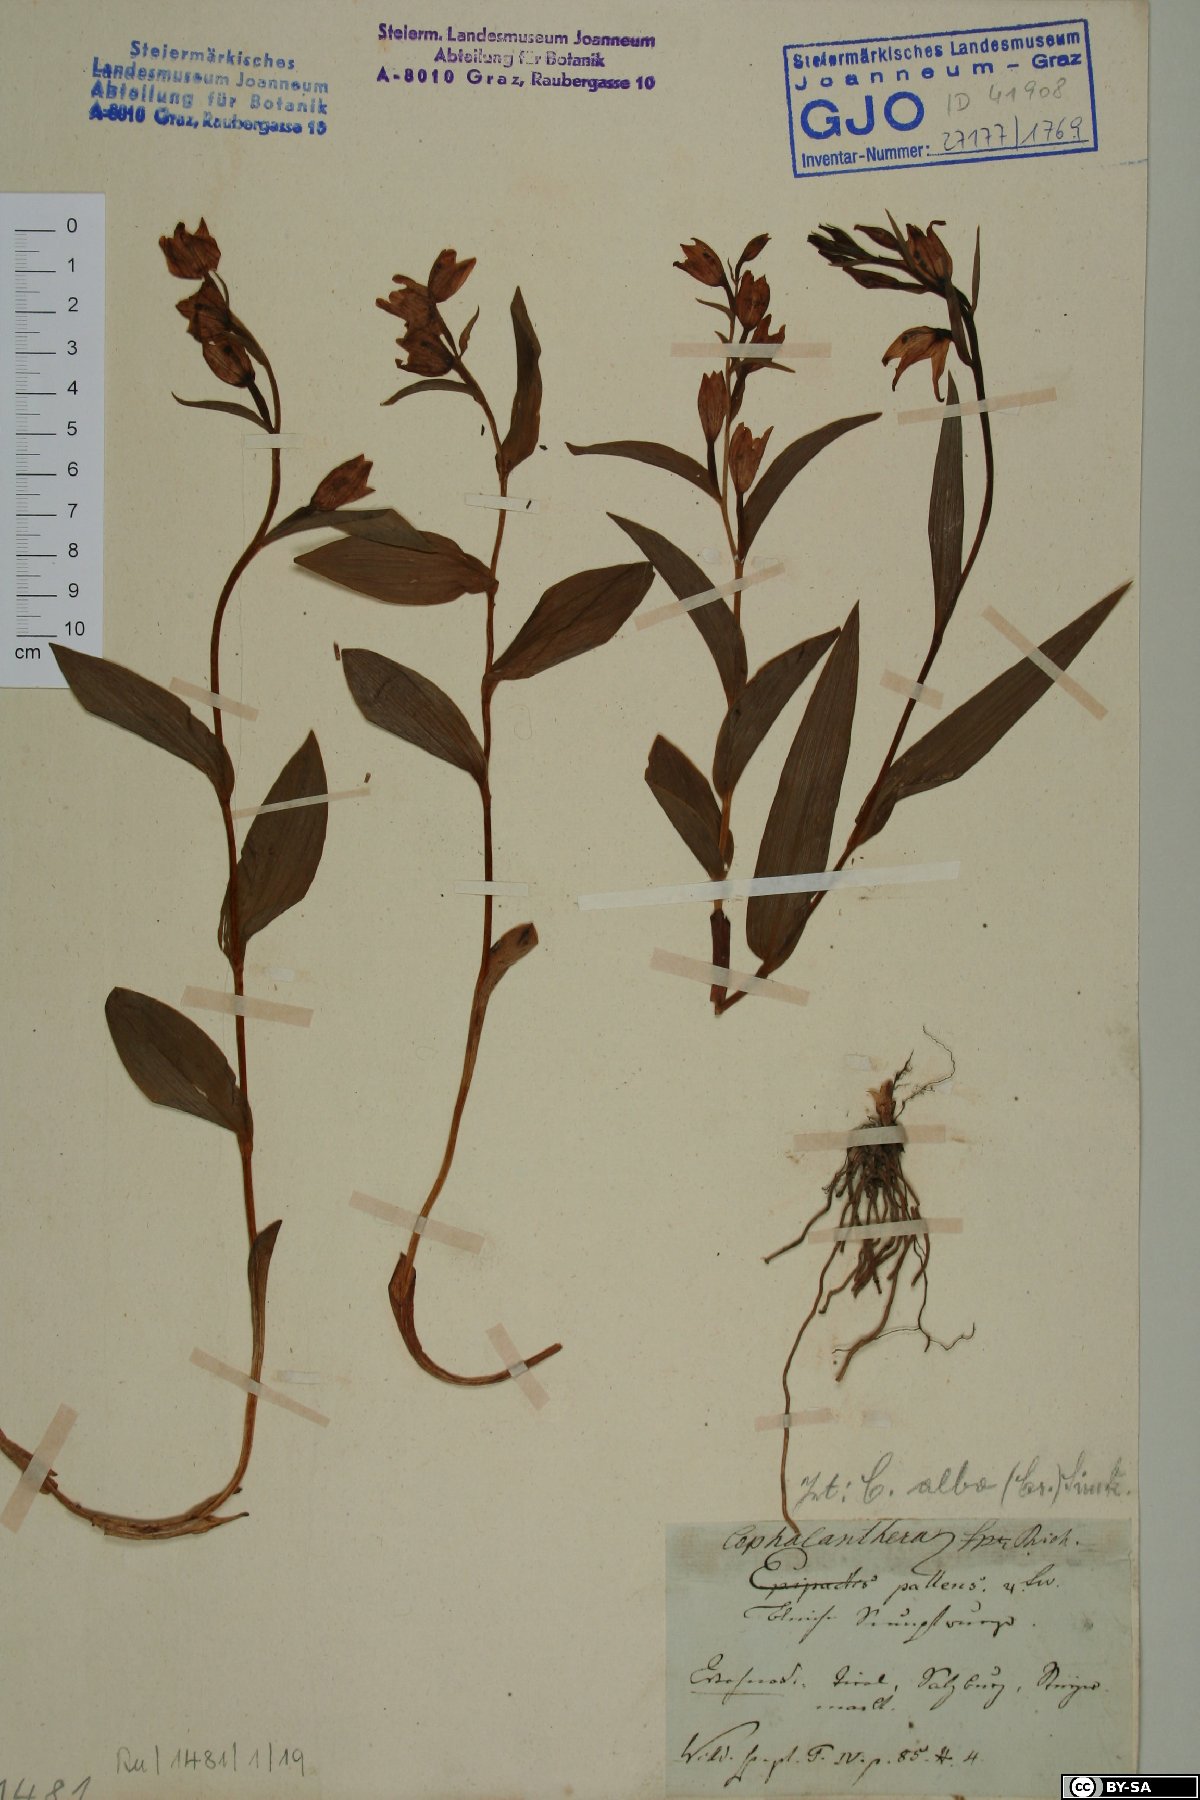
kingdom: Plantae
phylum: Tracheophyta
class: Liliopsida
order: Asparagales
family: Orchidaceae
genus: Cephalanthera
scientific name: Cephalanthera longifolia
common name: Narrow-leaved helleborine
